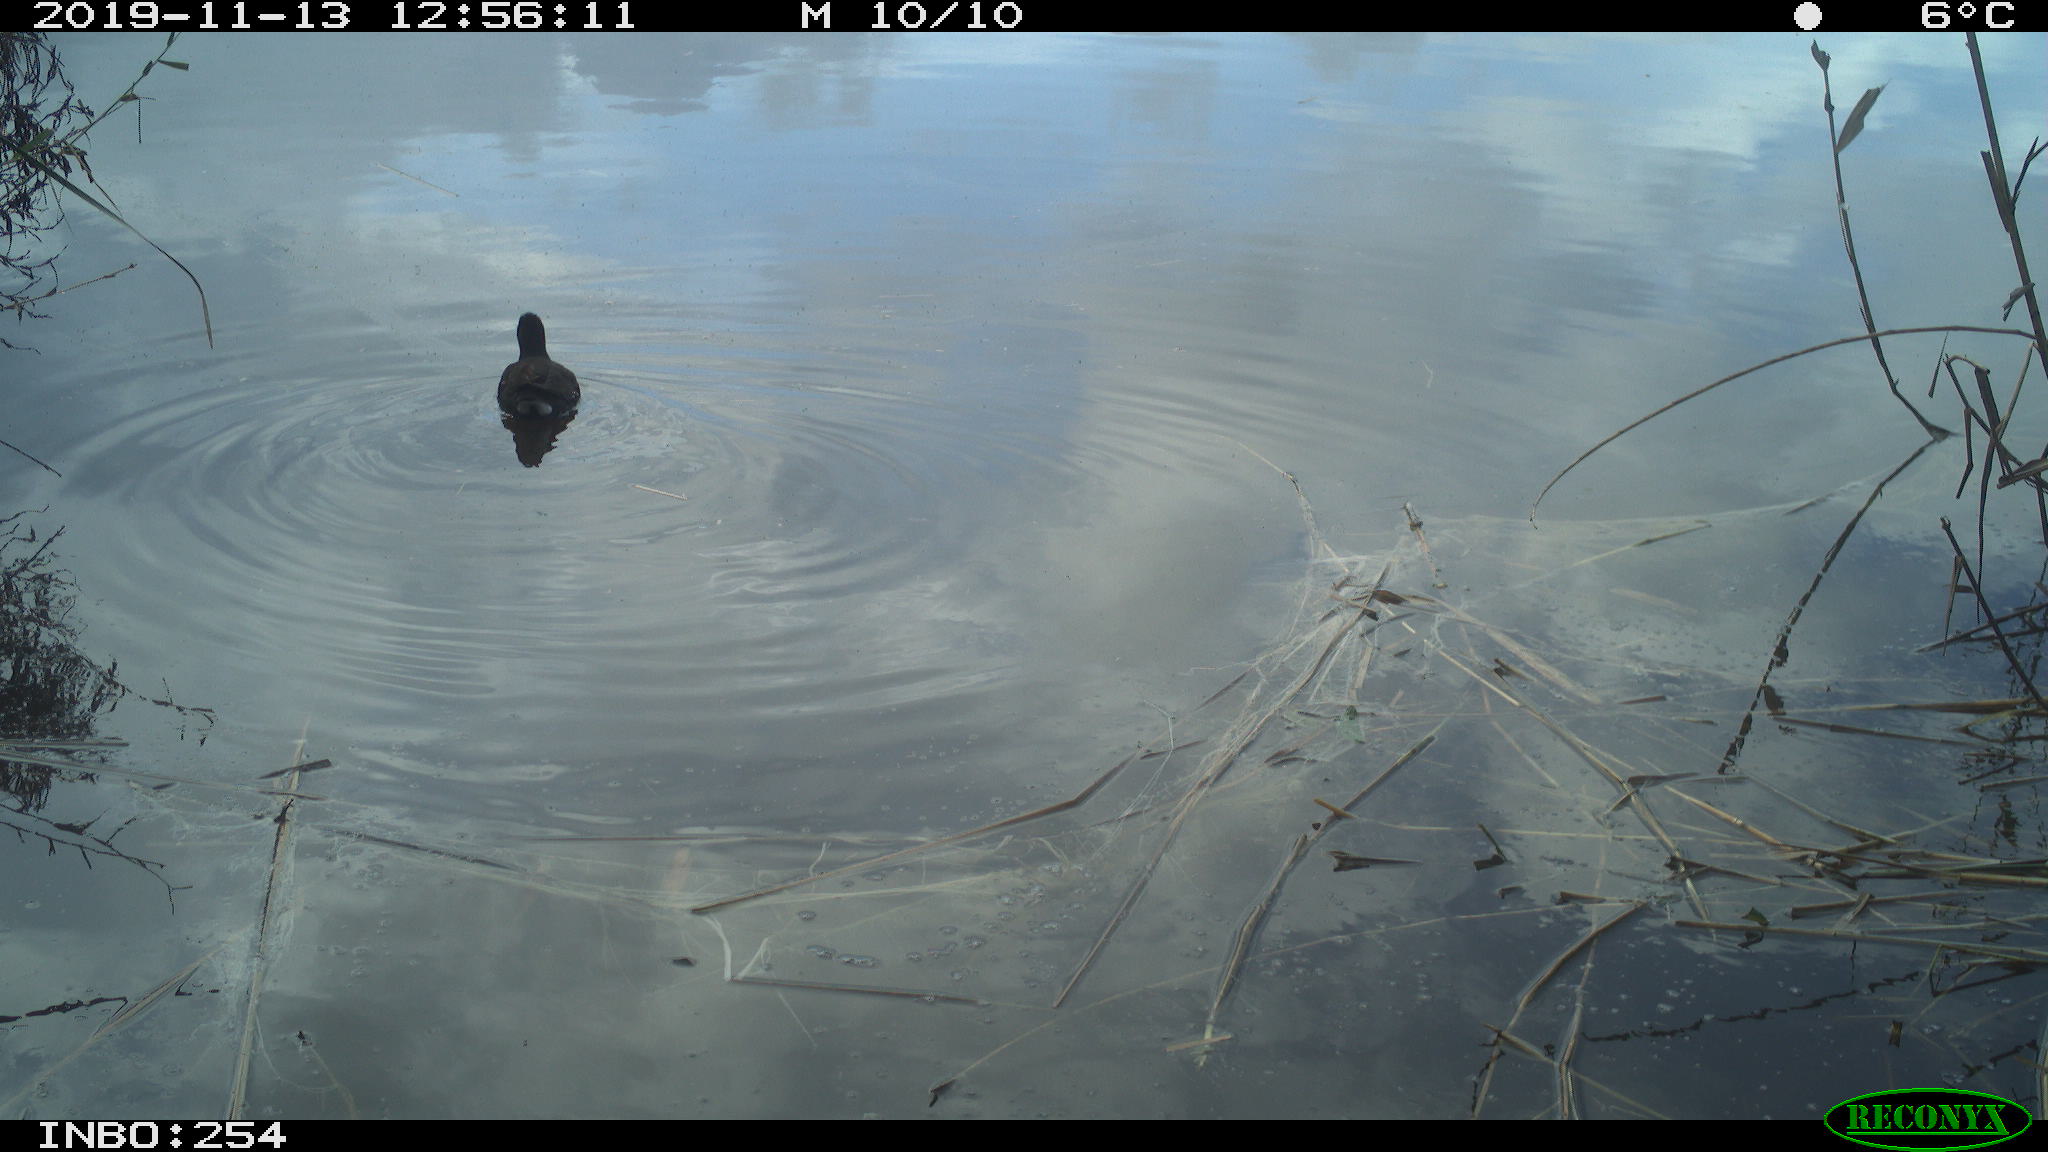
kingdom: Animalia
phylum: Chordata
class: Aves
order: Gruiformes
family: Rallidae
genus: Gallinula
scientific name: Gallinula chloropus
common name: Common moorhen
